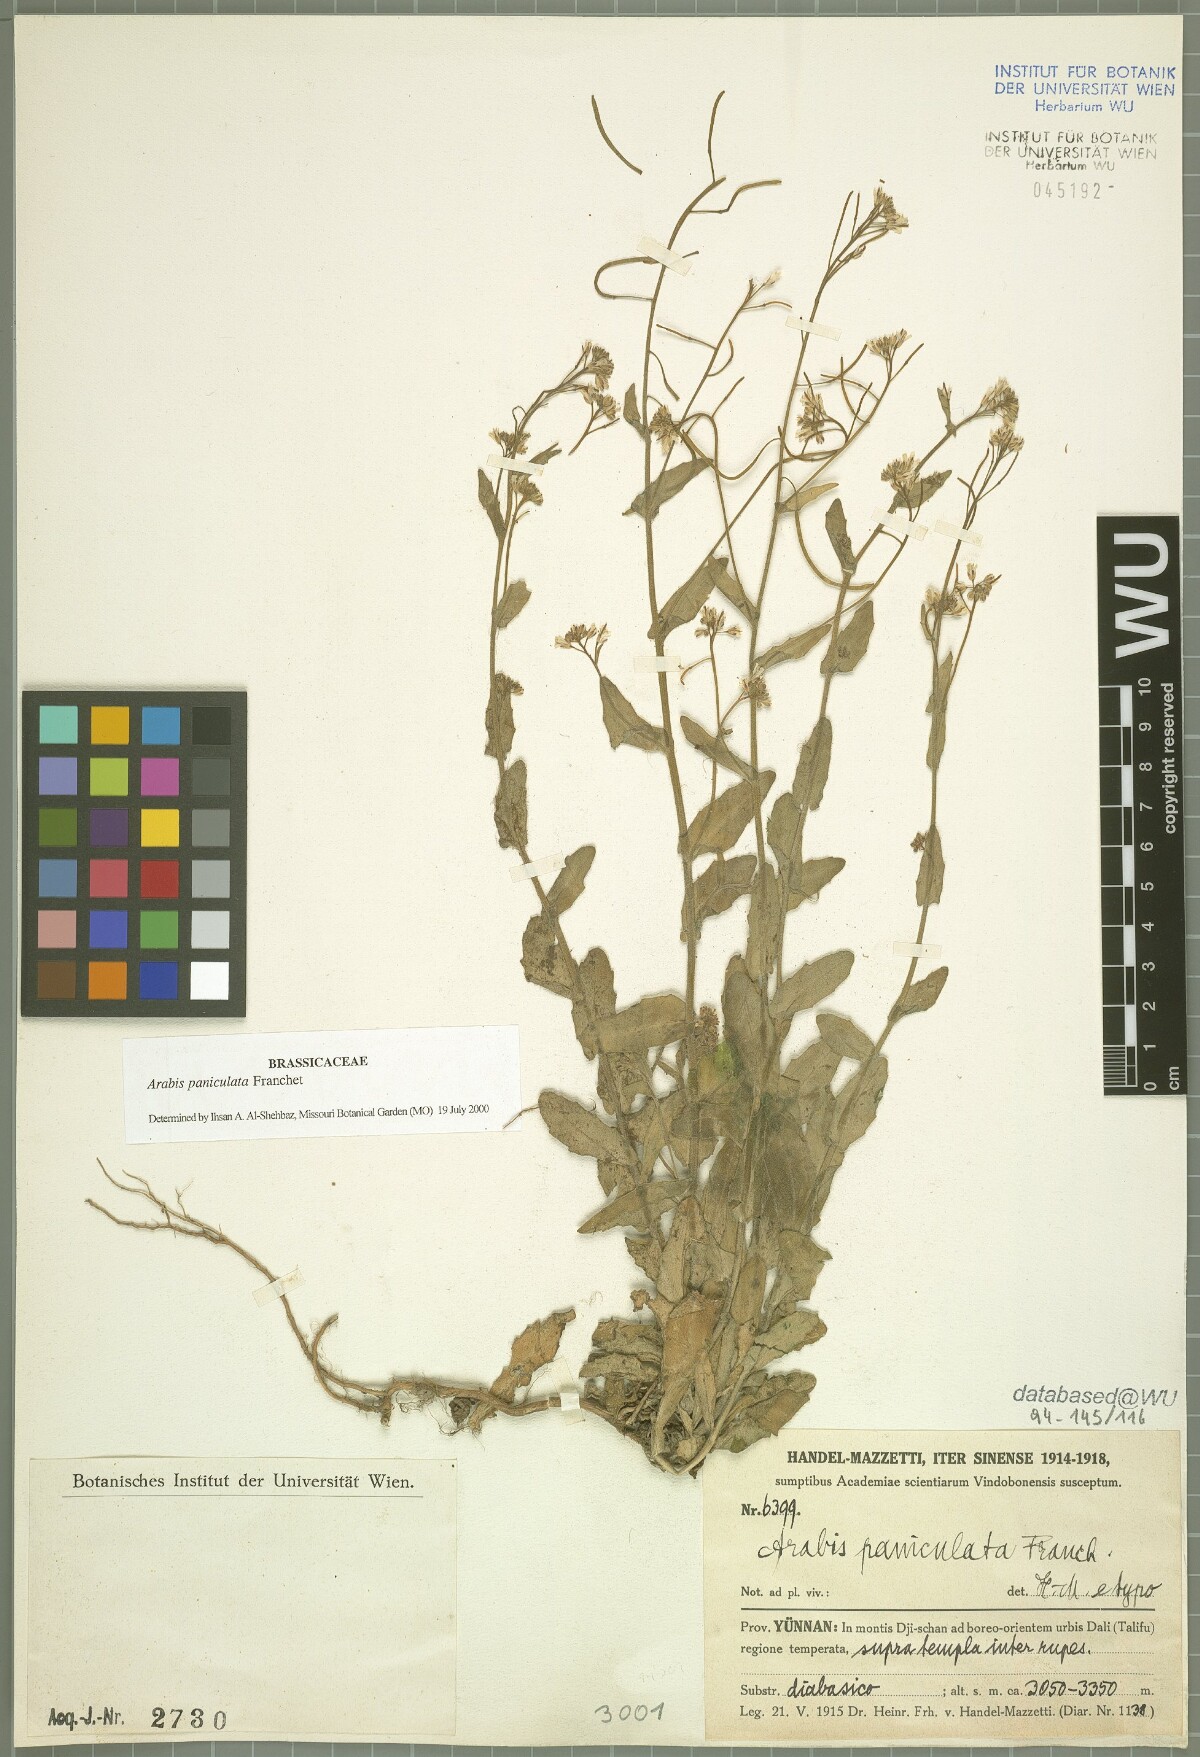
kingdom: Plantae
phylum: Tracheophyta
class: Magnoliopsida
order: Brassicales
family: Brassicaceae
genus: Arabis
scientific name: Arabis paniculata
